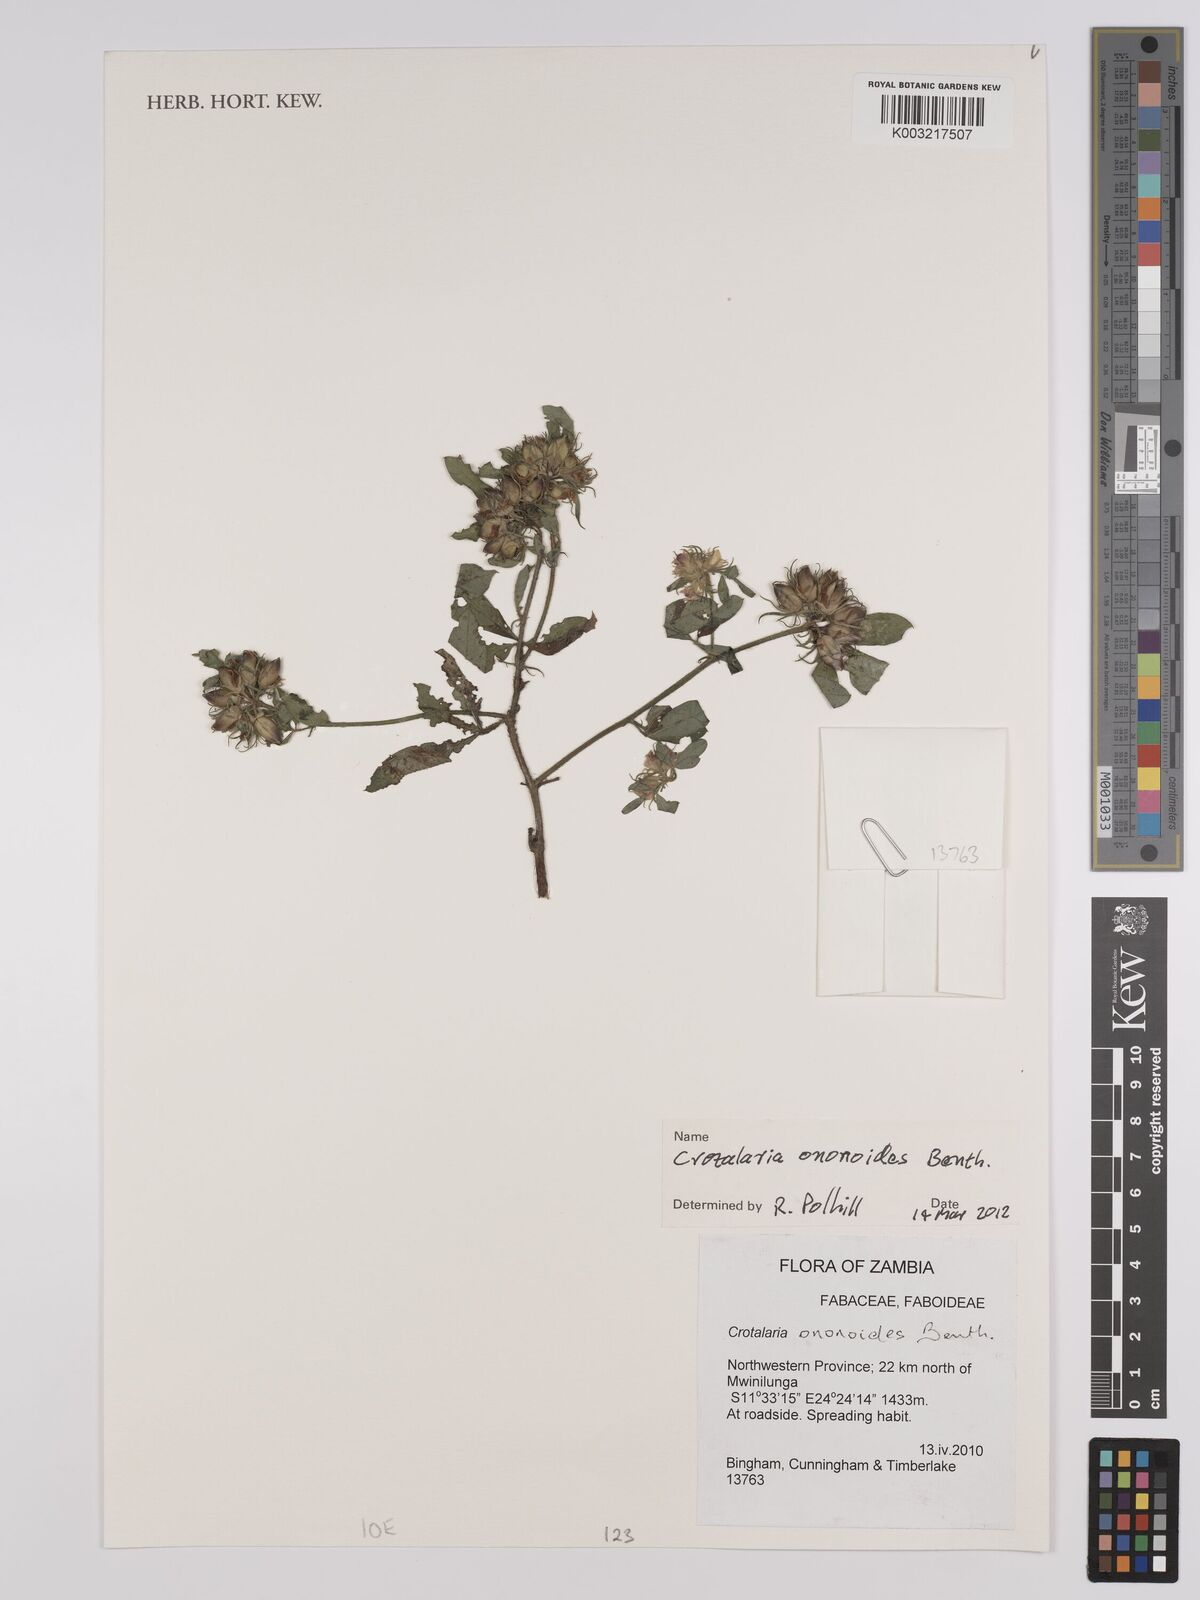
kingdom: Plantae
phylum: Tracheophyta
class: Magnoliopsida
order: Fabales
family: Fabaceae
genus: Crotalaria
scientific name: Crotalaria ononoides
